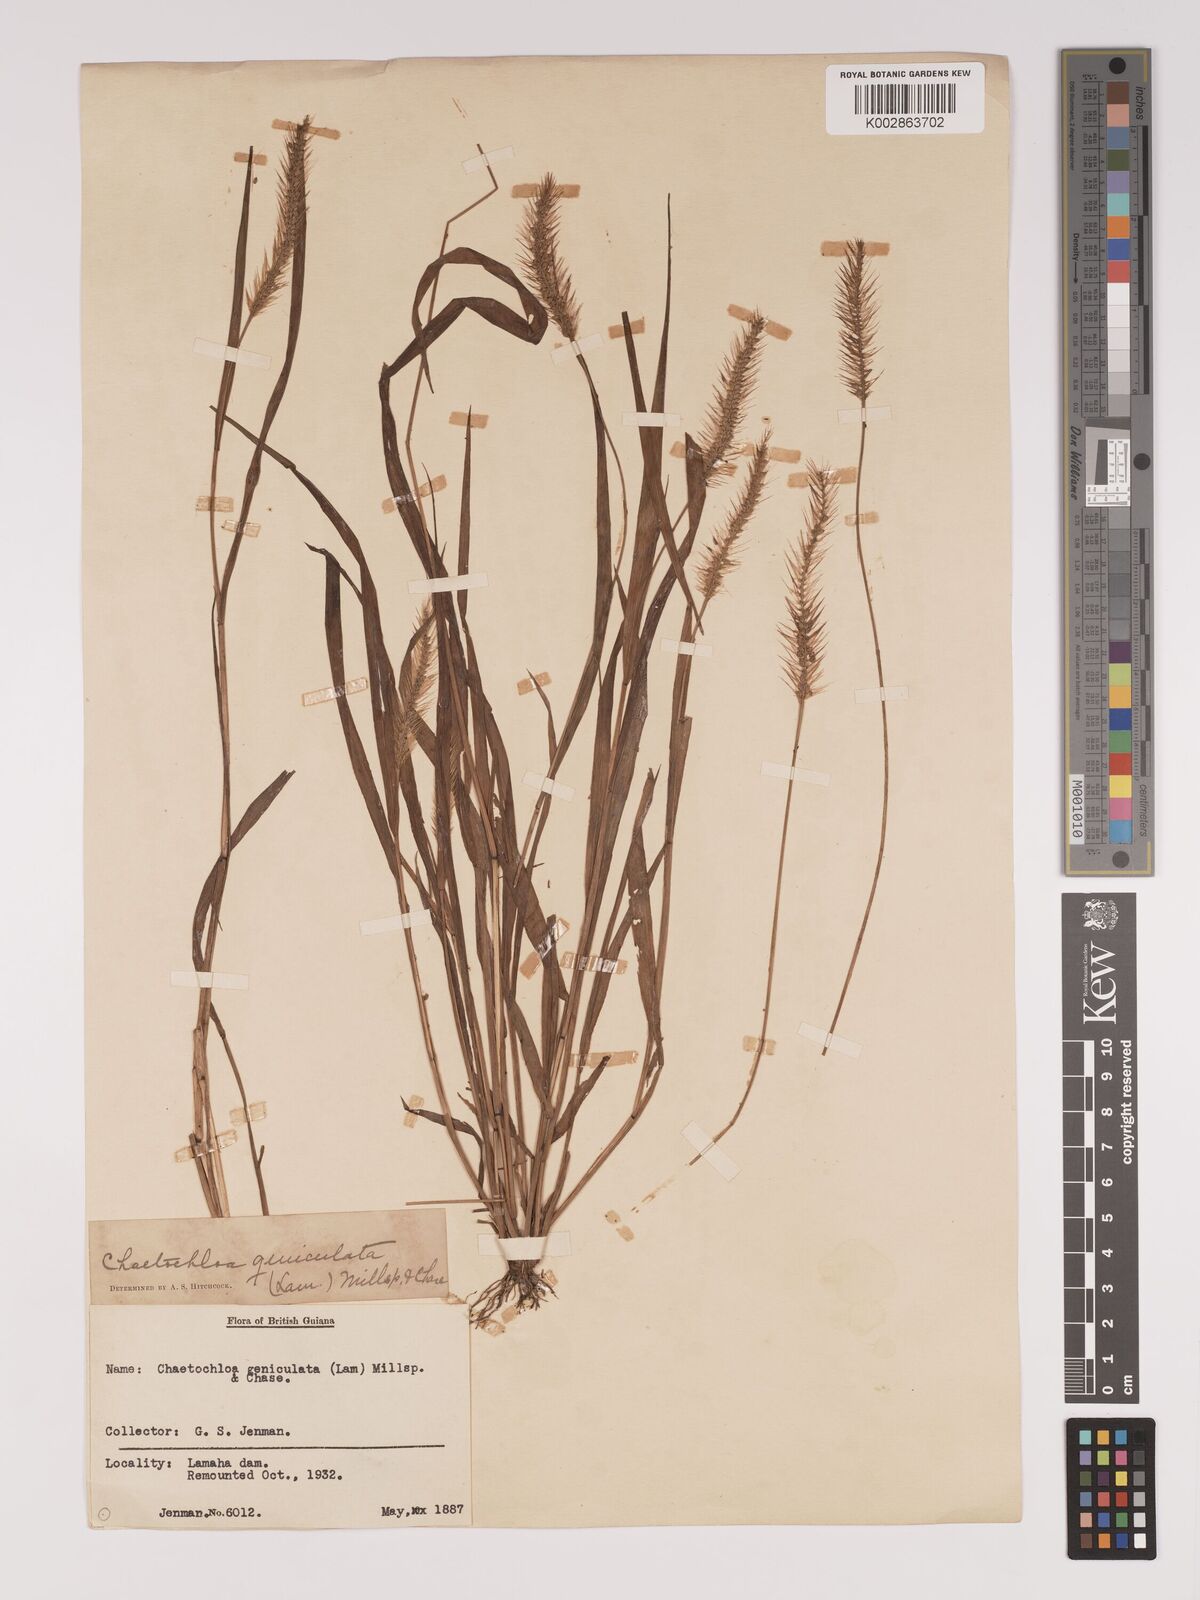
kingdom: Plantae
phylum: Tracheophyta
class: Liliopsida
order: Poales
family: Poaceae
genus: Setaria
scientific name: Setaria parviflora
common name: Knotroot bristle-grass
